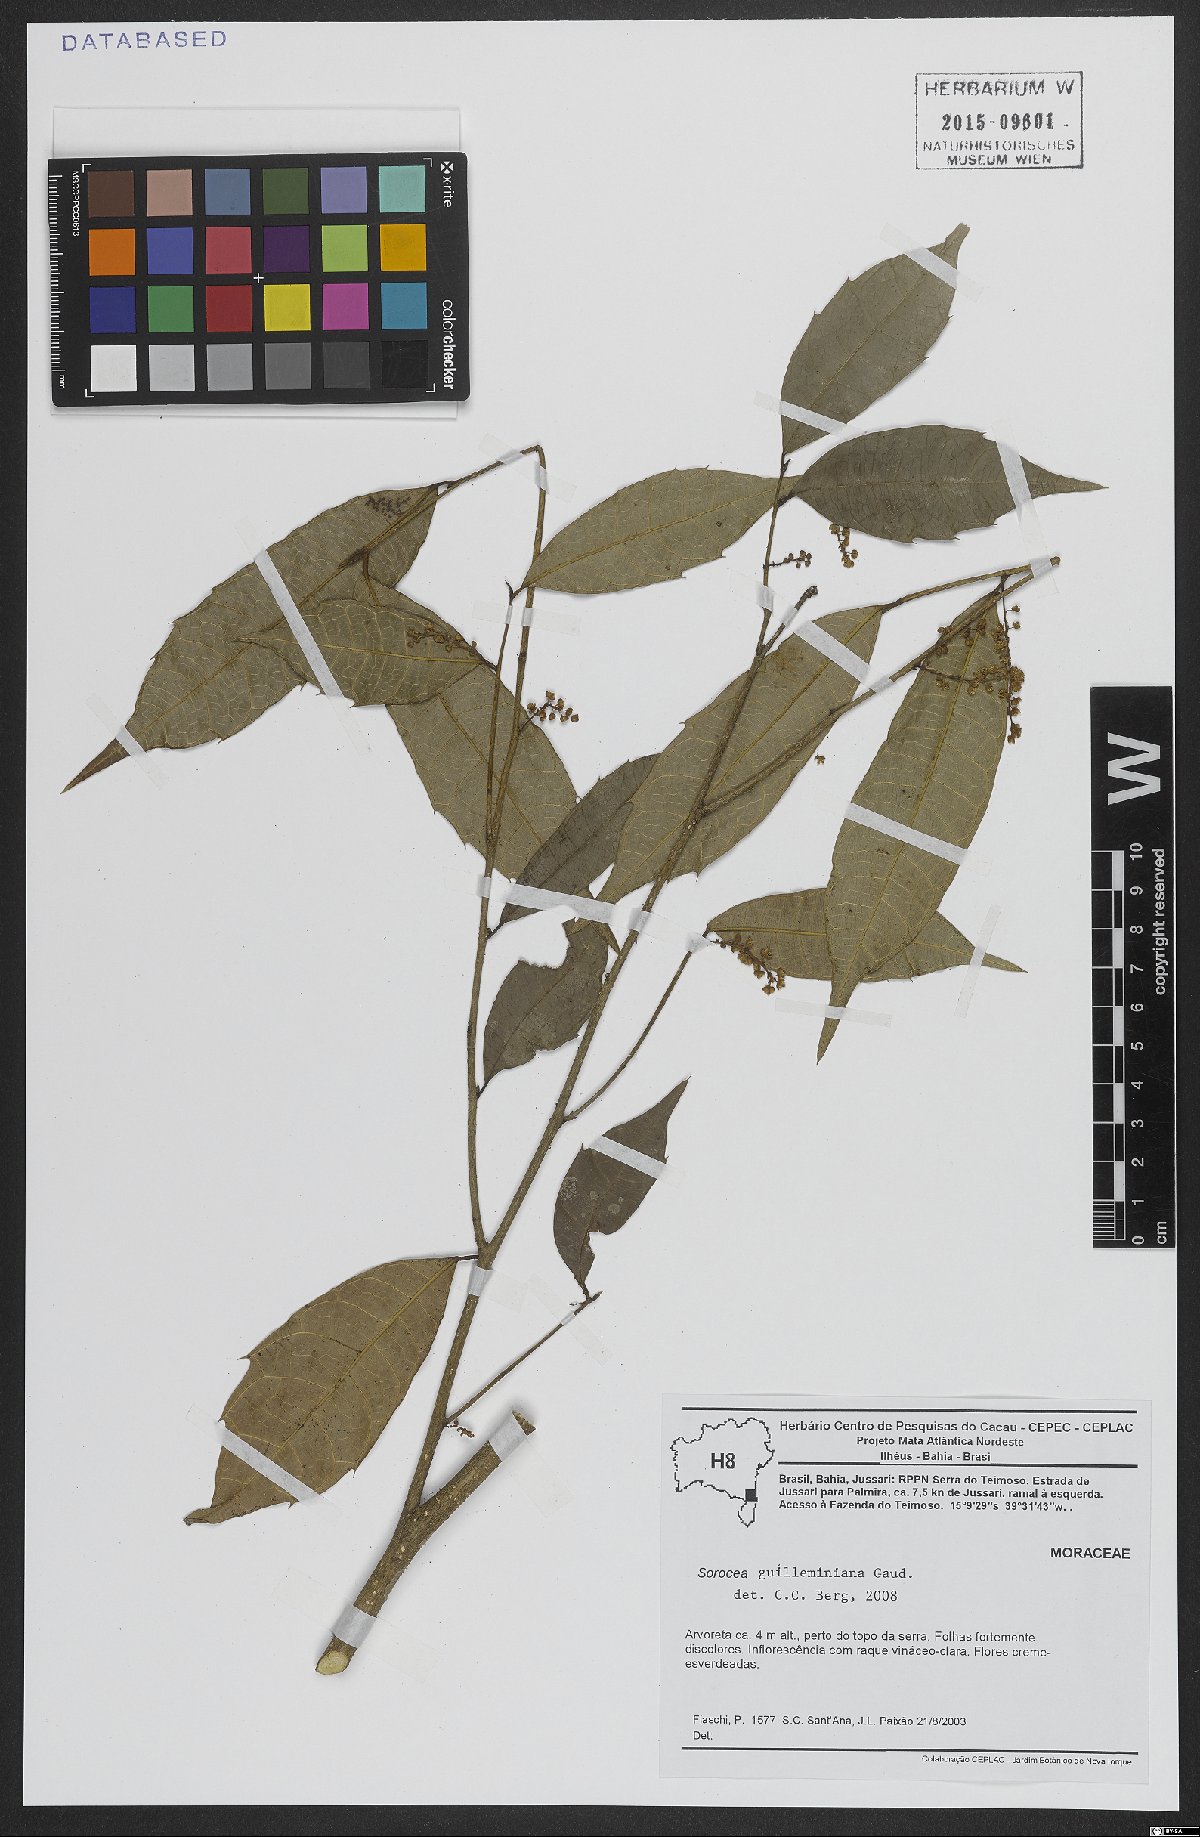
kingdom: Plantae
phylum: Tracheophyta
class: Magnoliopsida
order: Rosales
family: Moraceae
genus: Sorocea
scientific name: Sorocea guilleminiana
